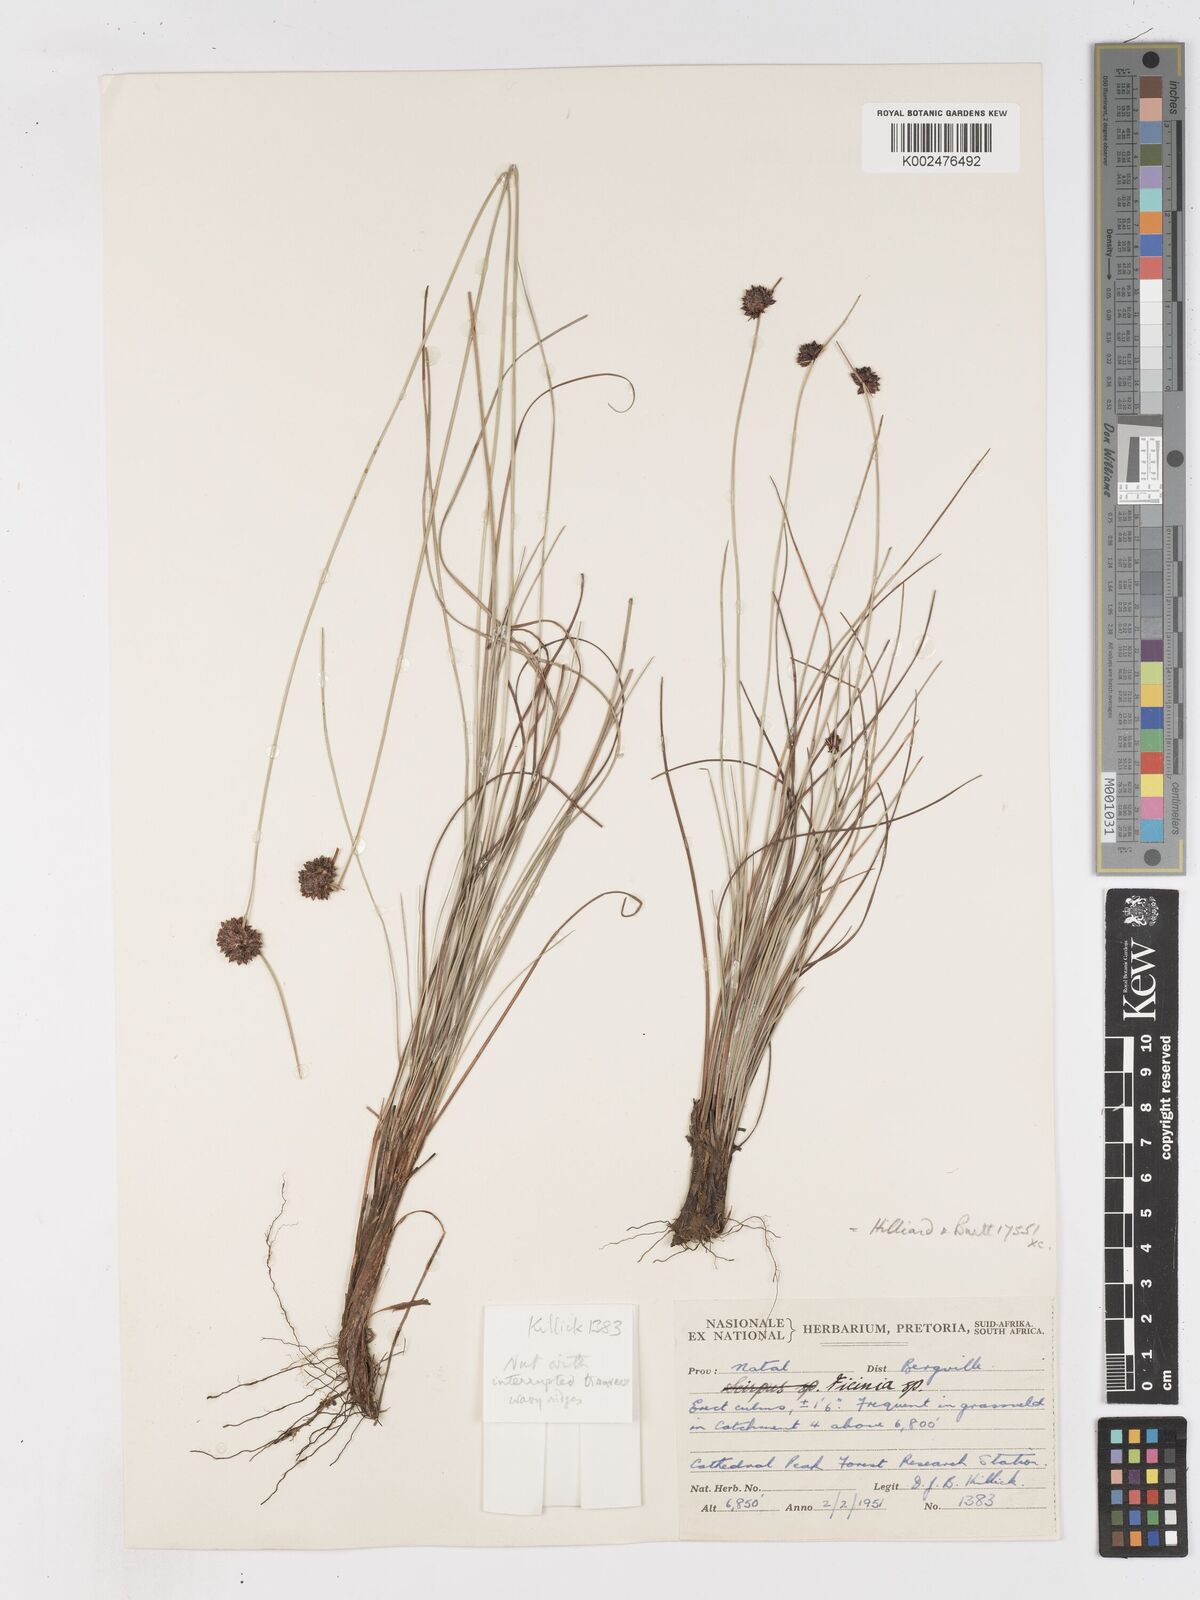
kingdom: Plantae
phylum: Tracheophyta
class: Liliopsida
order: Poales
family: Cyperaceae
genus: Ficinia
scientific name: Ficinia undosa
